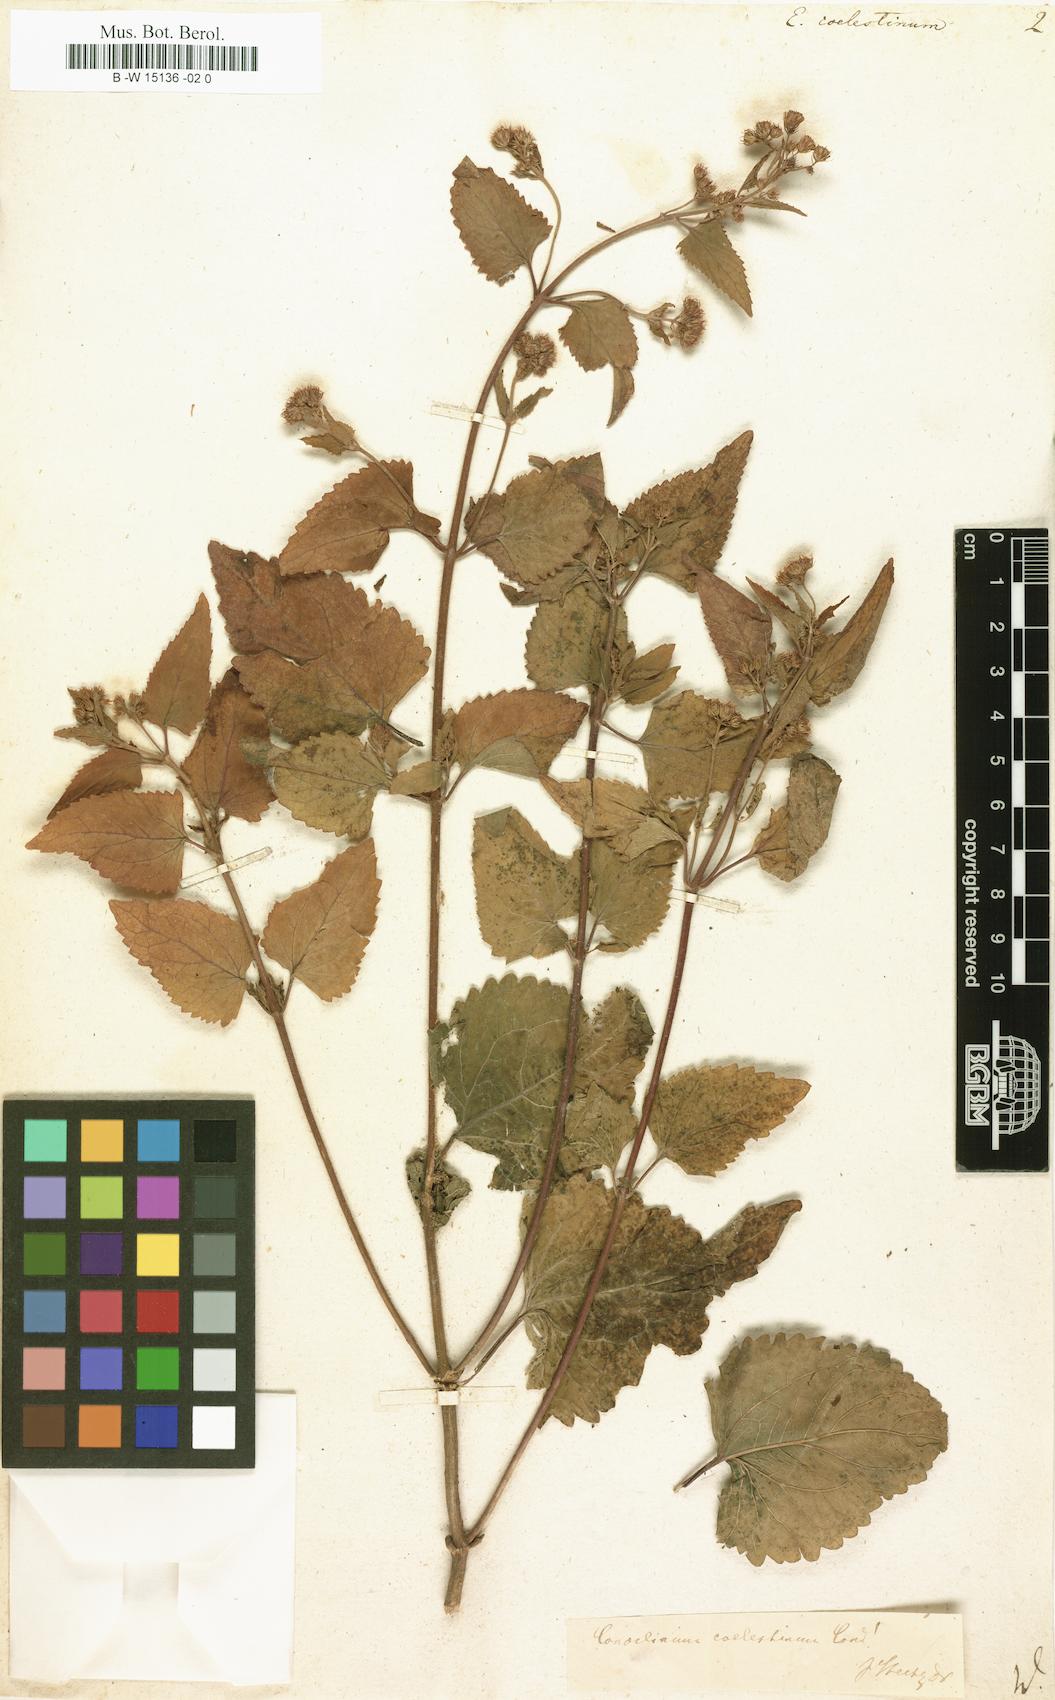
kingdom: Plantae
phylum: Tracheophyta
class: Magnoliopsida
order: Asterales
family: Asteraceae
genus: Eupatorium
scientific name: Eupatorium coelestinum
